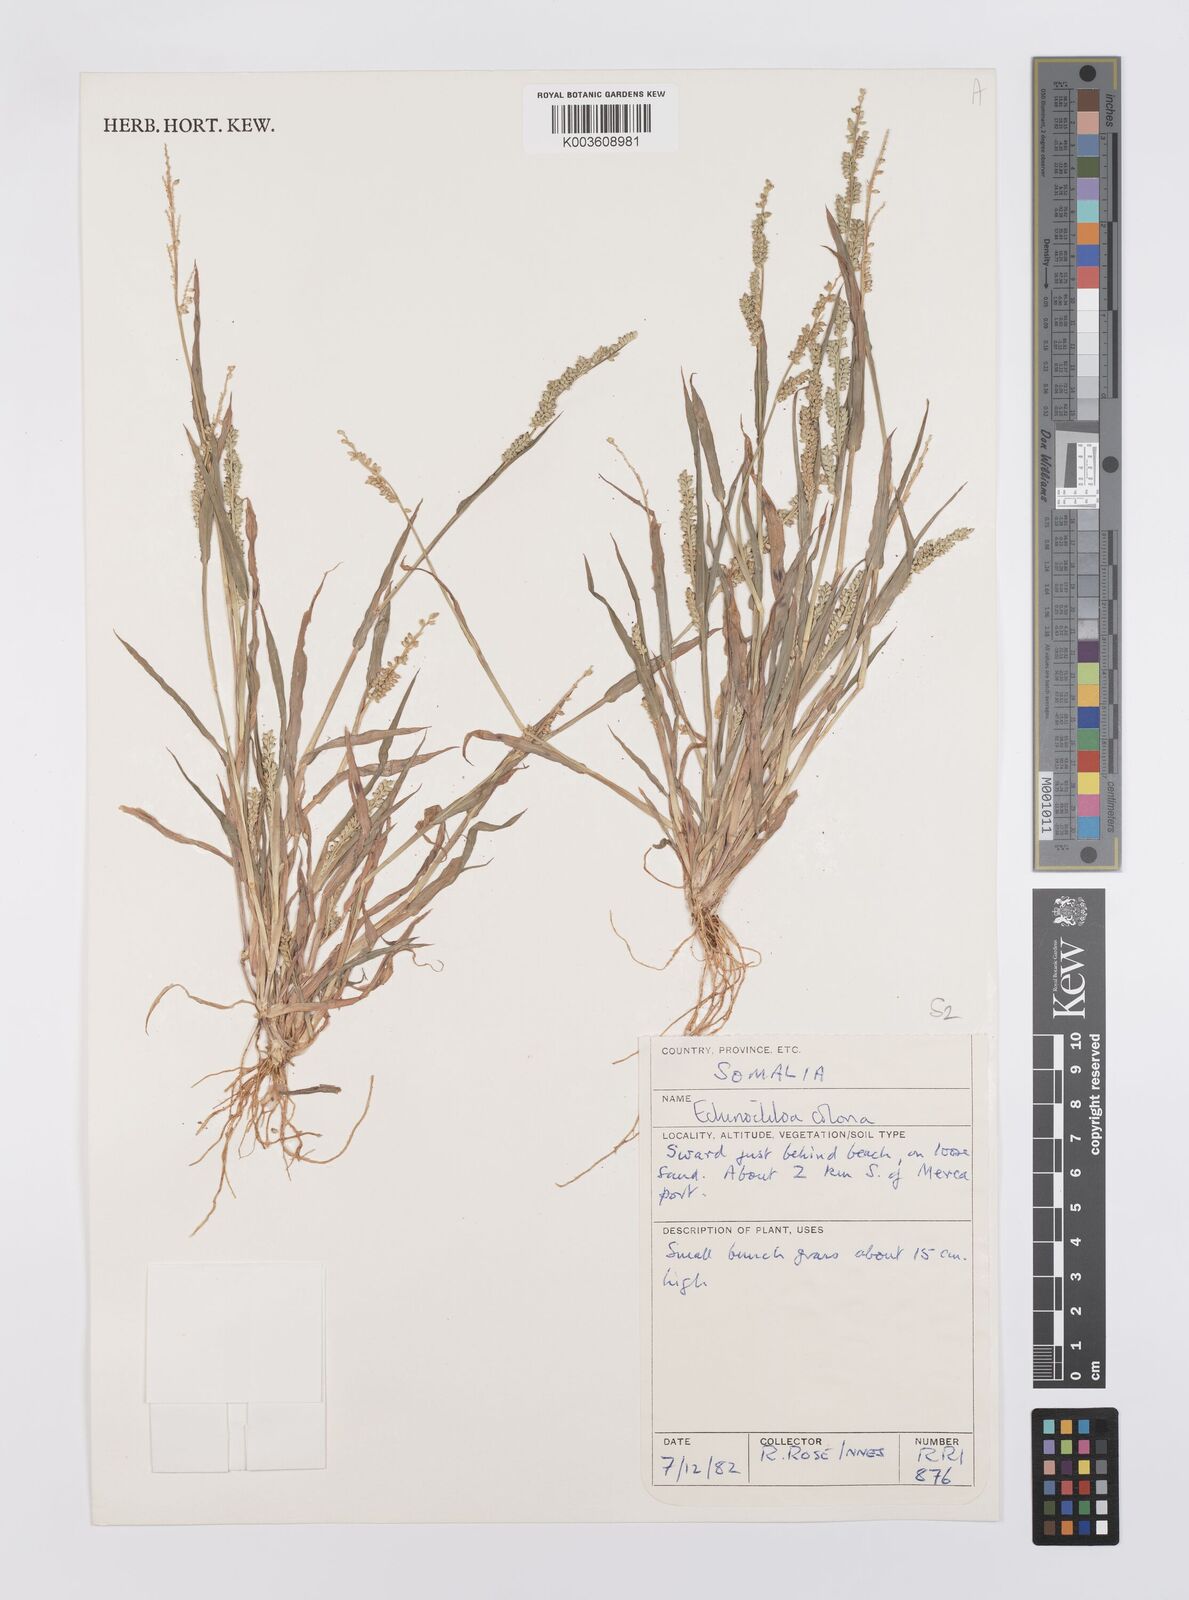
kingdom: Plantae
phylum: Tracheophyta
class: Liliopsida
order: Poales
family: Poaceae
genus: Echinochloa
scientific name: Echinochloa colonum
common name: Jungle rice
